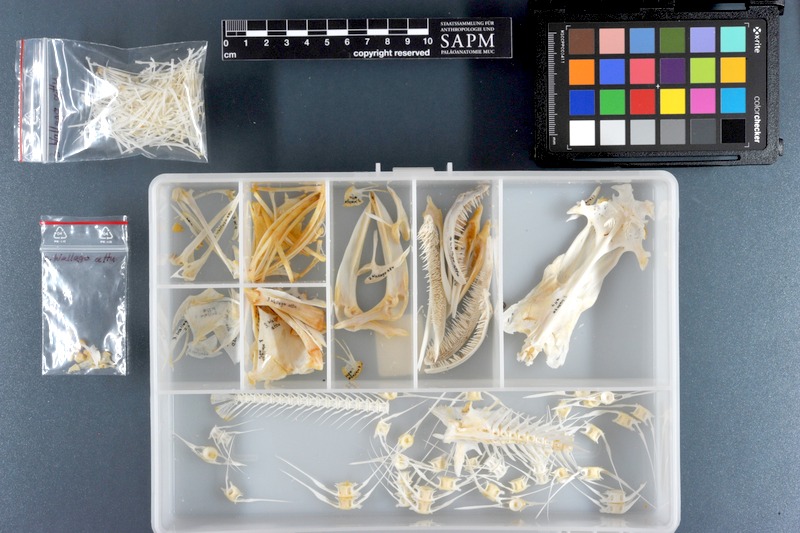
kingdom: Animalia
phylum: Chordata
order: Siluriformes
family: Siluridae
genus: Wallago
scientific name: Wallago attu
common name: Freshwater shark
